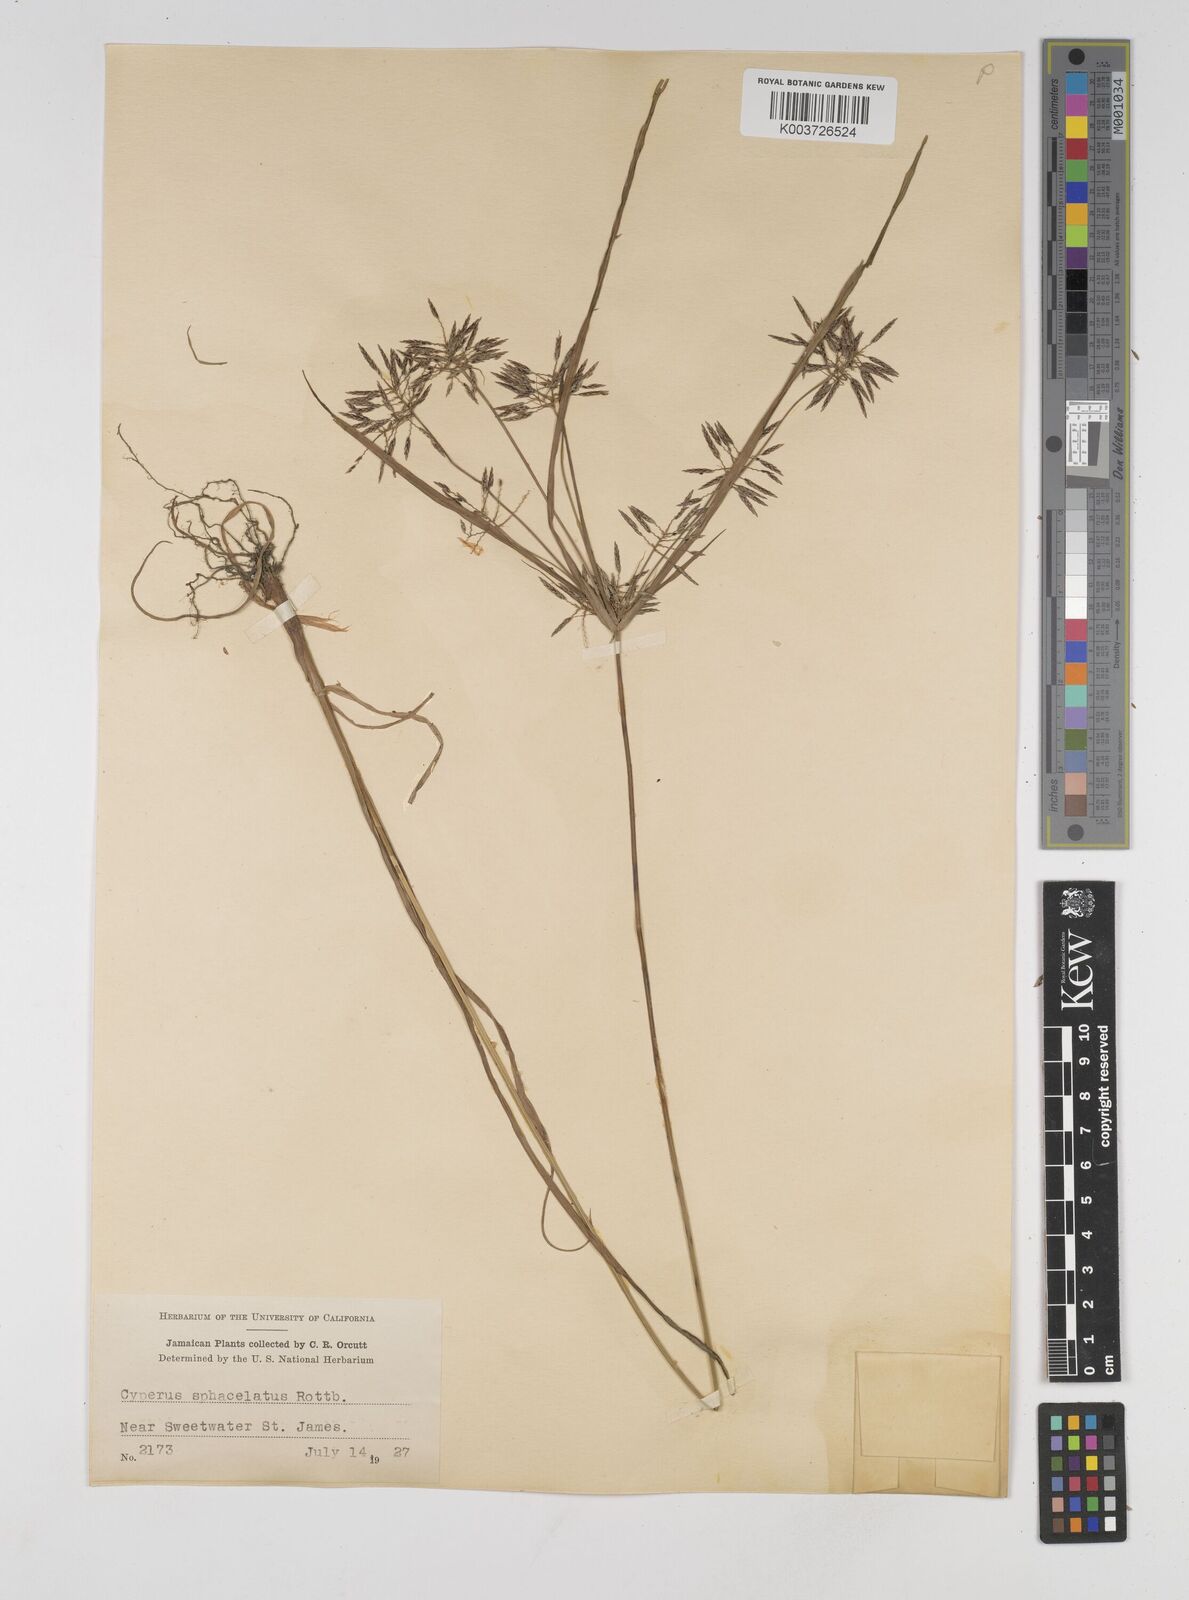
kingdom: Plantae
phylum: Tracheophyta
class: Liliopsida
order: Poales
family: Cyperaceae
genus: Cyperus
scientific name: Cyperus sphacelatus
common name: Roadside flatsedge
